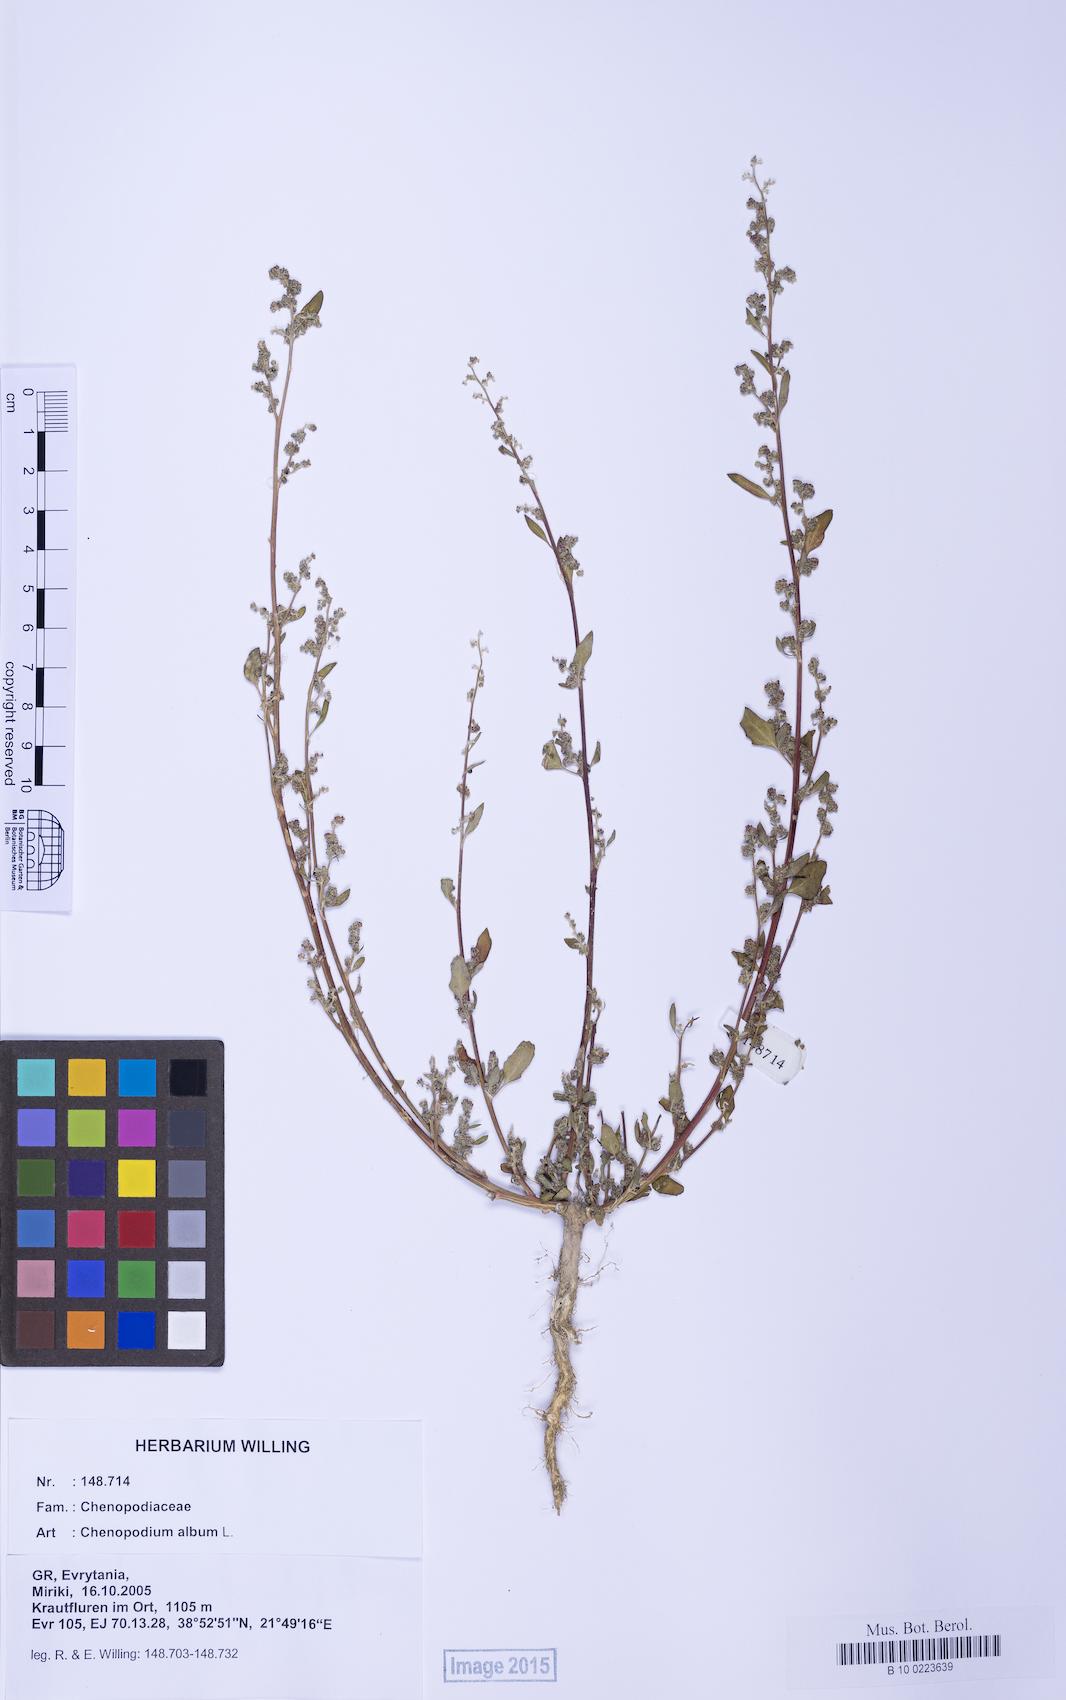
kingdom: Plantae
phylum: Tracheophyta
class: Magnoliopsida
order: Caryophyllales
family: Amaranthaceae
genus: Chenopodium
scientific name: Chenopodium album
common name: Fat-hen
